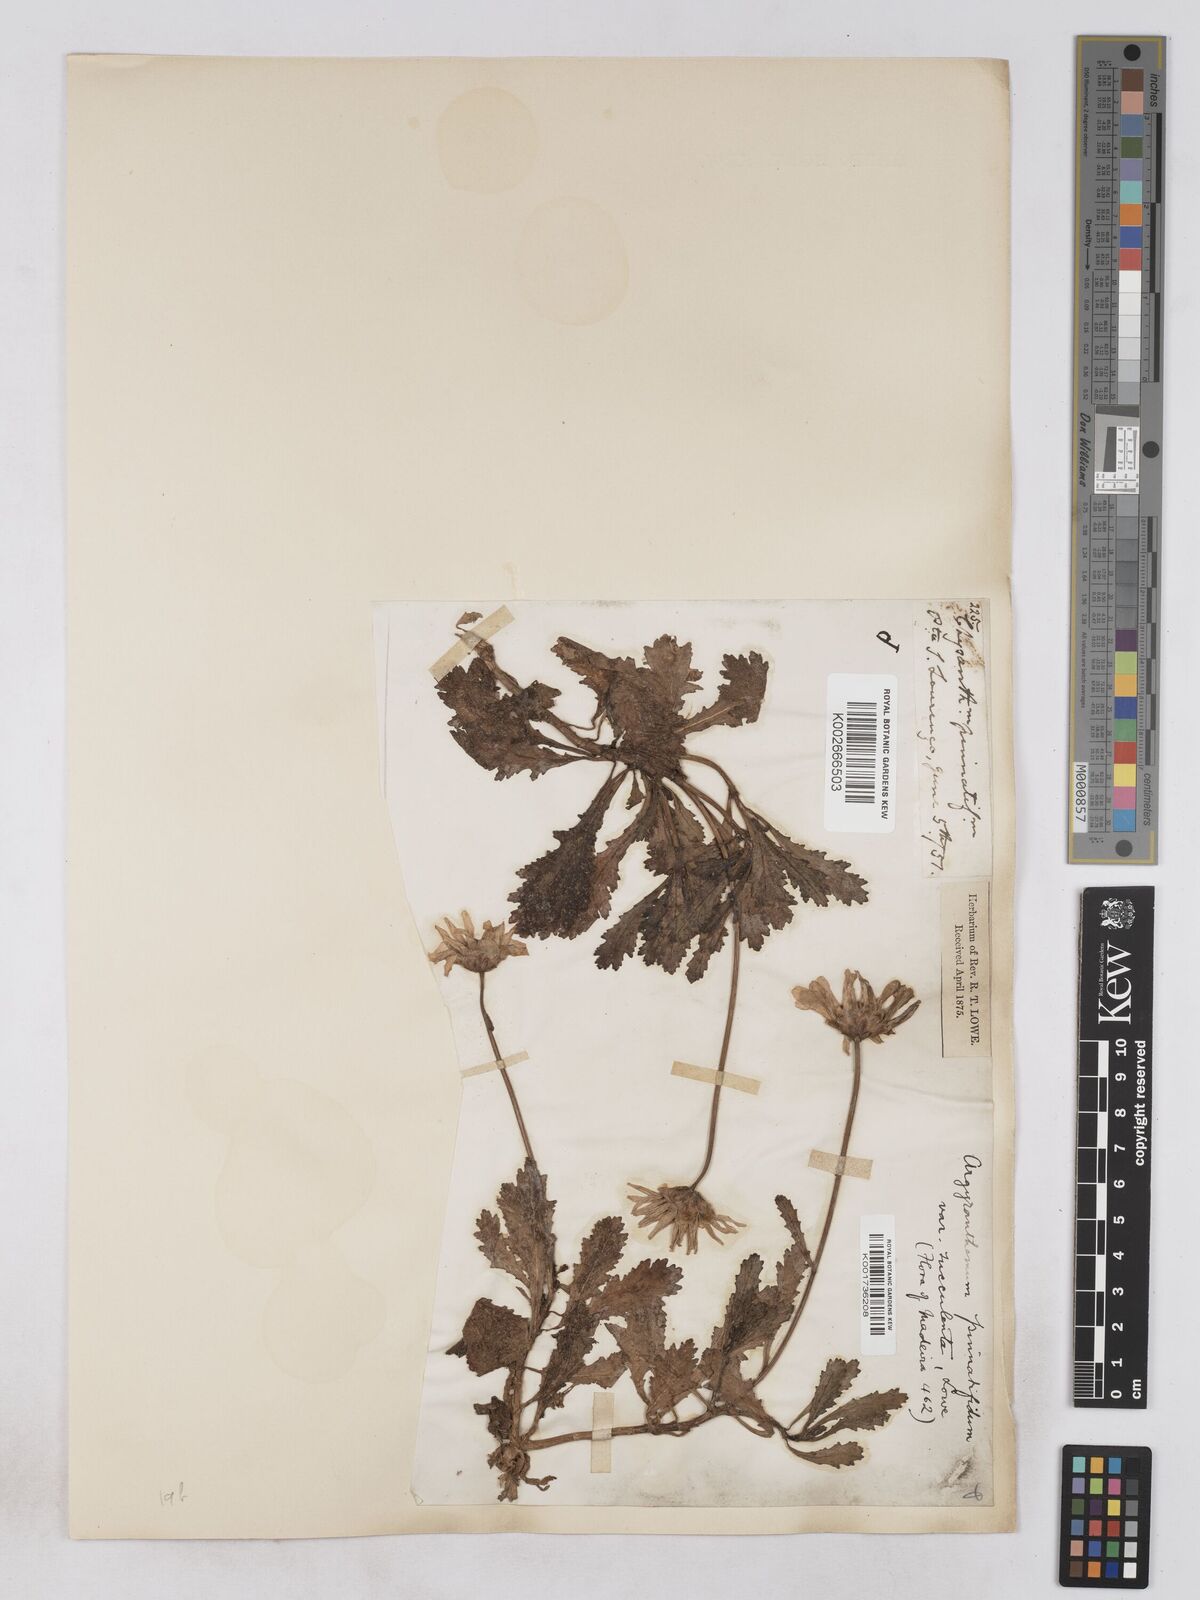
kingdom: Plantae
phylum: Tracheophyta
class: Magnoliopsida
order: Asterales
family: Asteraceae
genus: Argyranthemum
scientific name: Argyranthemum pinnatifidum
